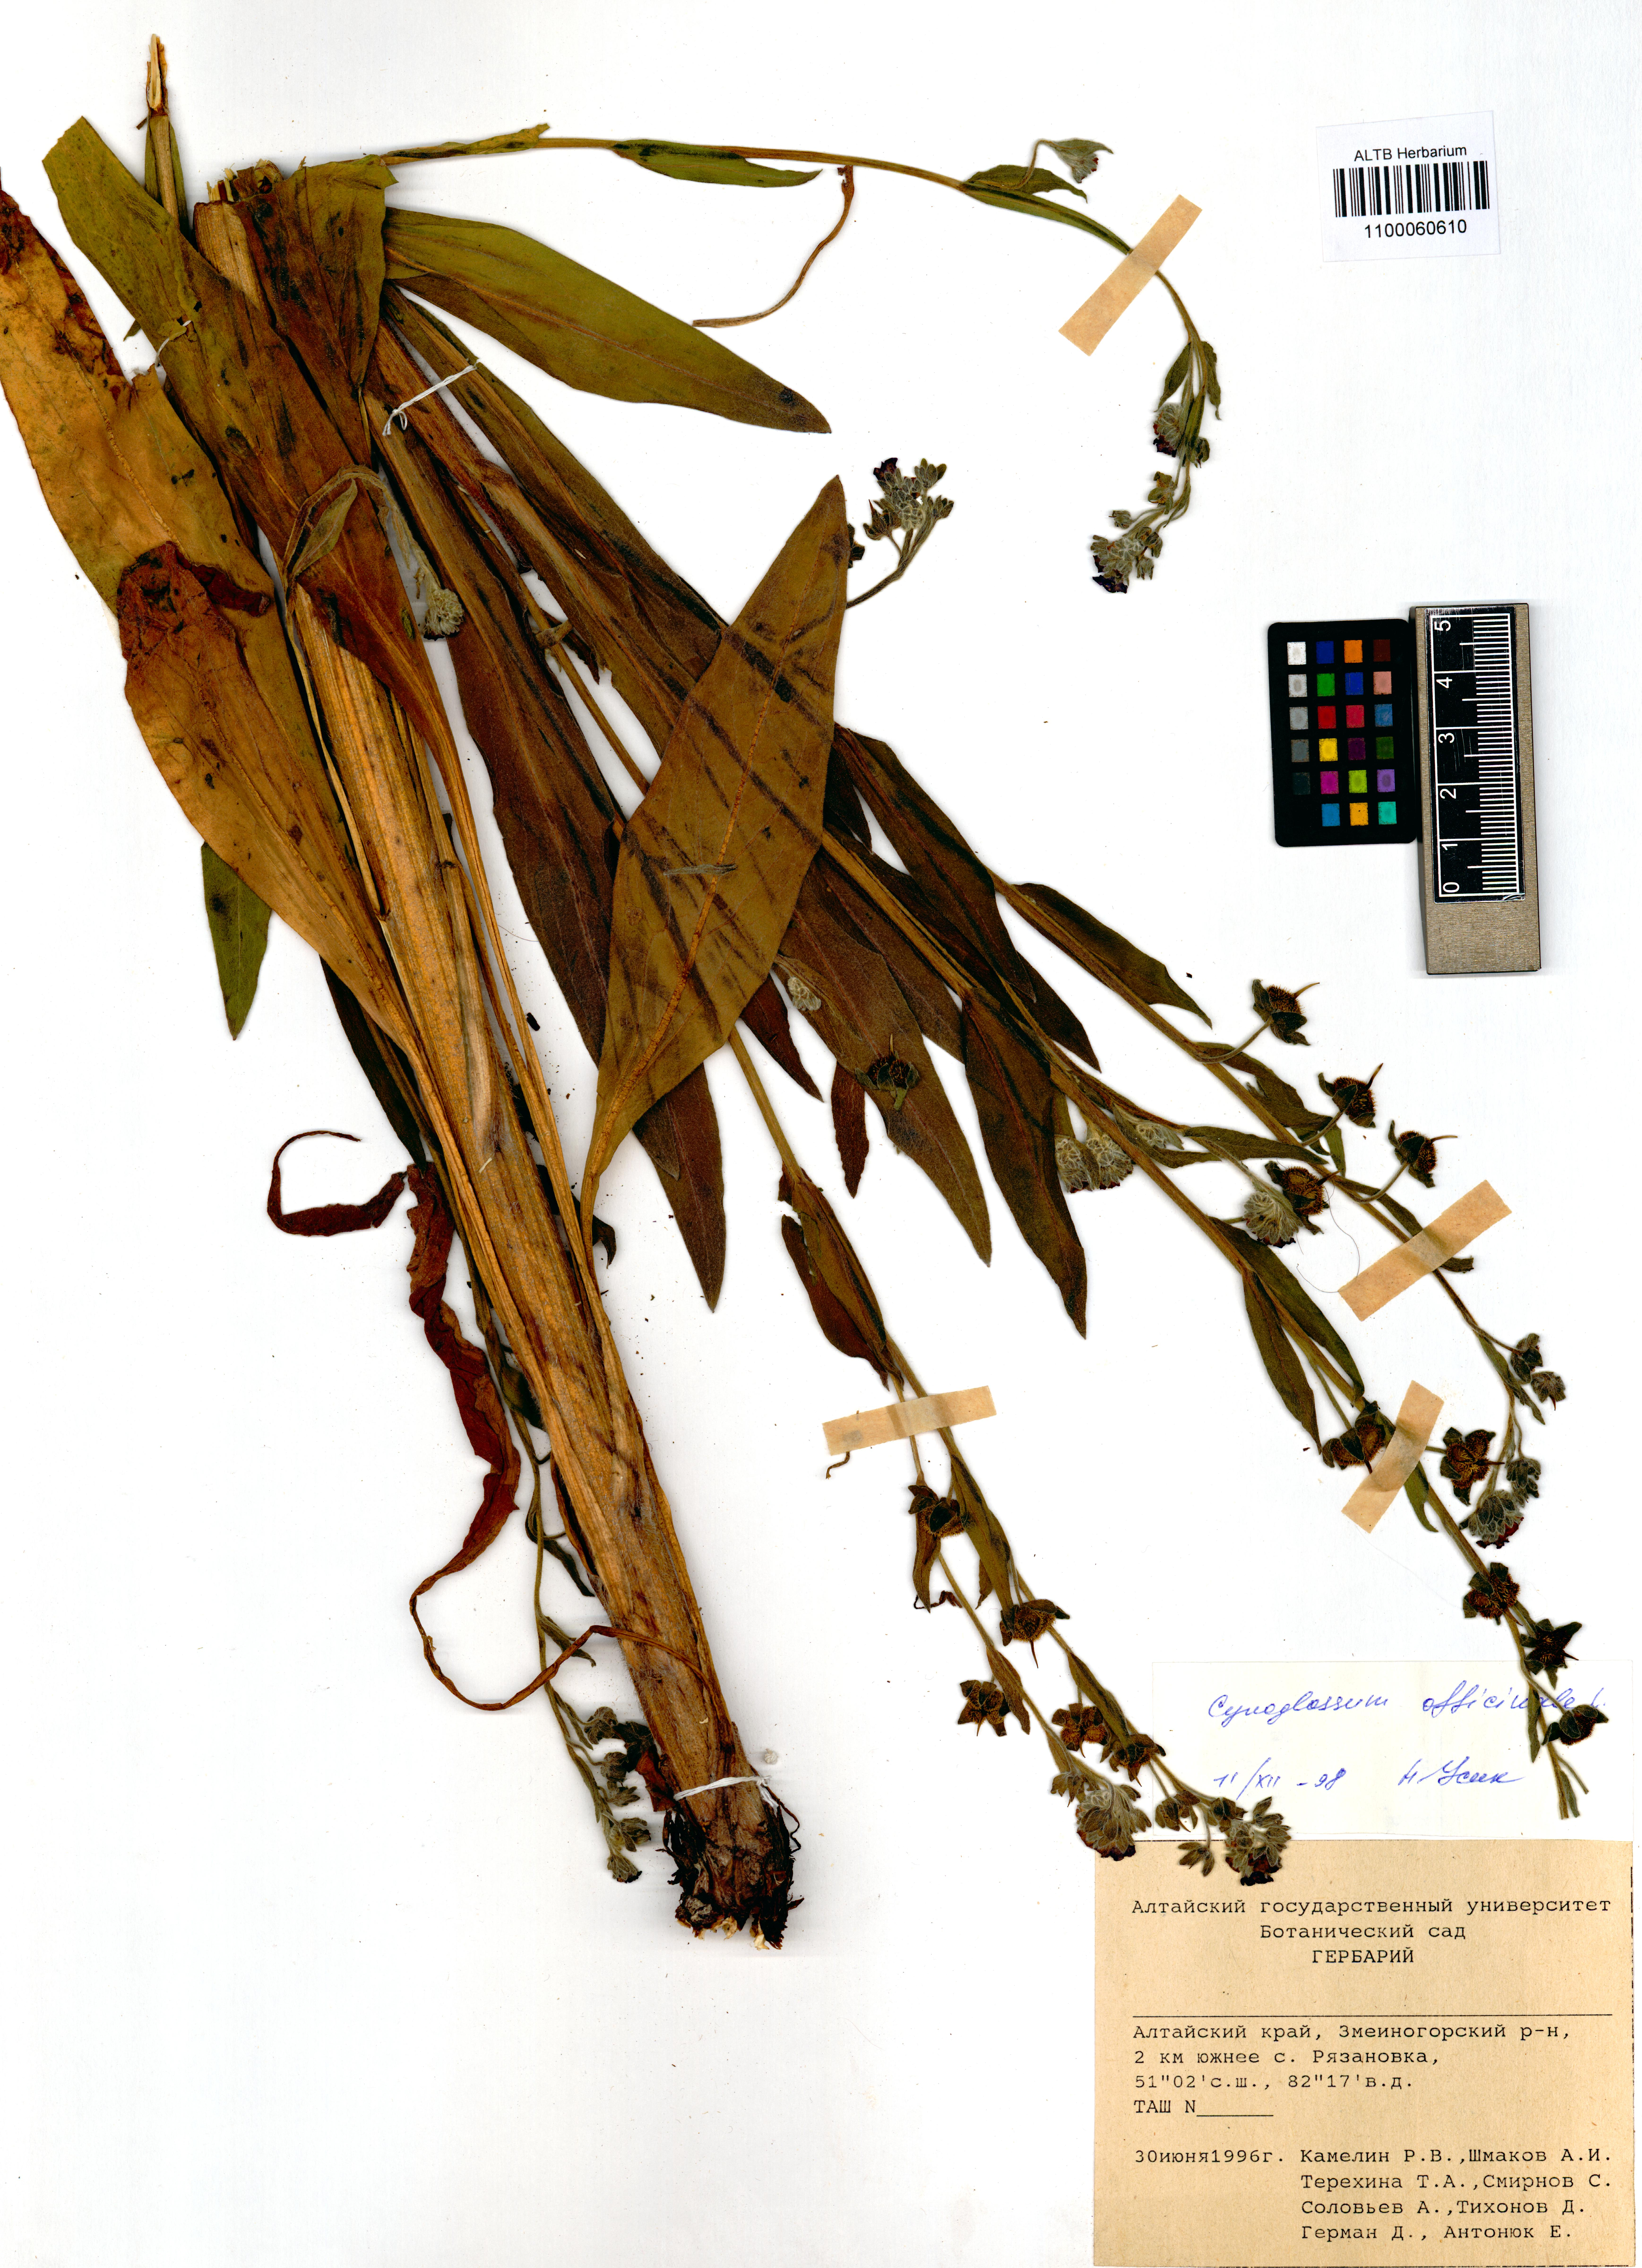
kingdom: Plantae
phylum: Tracheophyta
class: Magnoliopsida
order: Boraginales
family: Boraginaceae
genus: Cynoglossum
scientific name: Cynoglossum officinale
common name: Hound's-tongue
